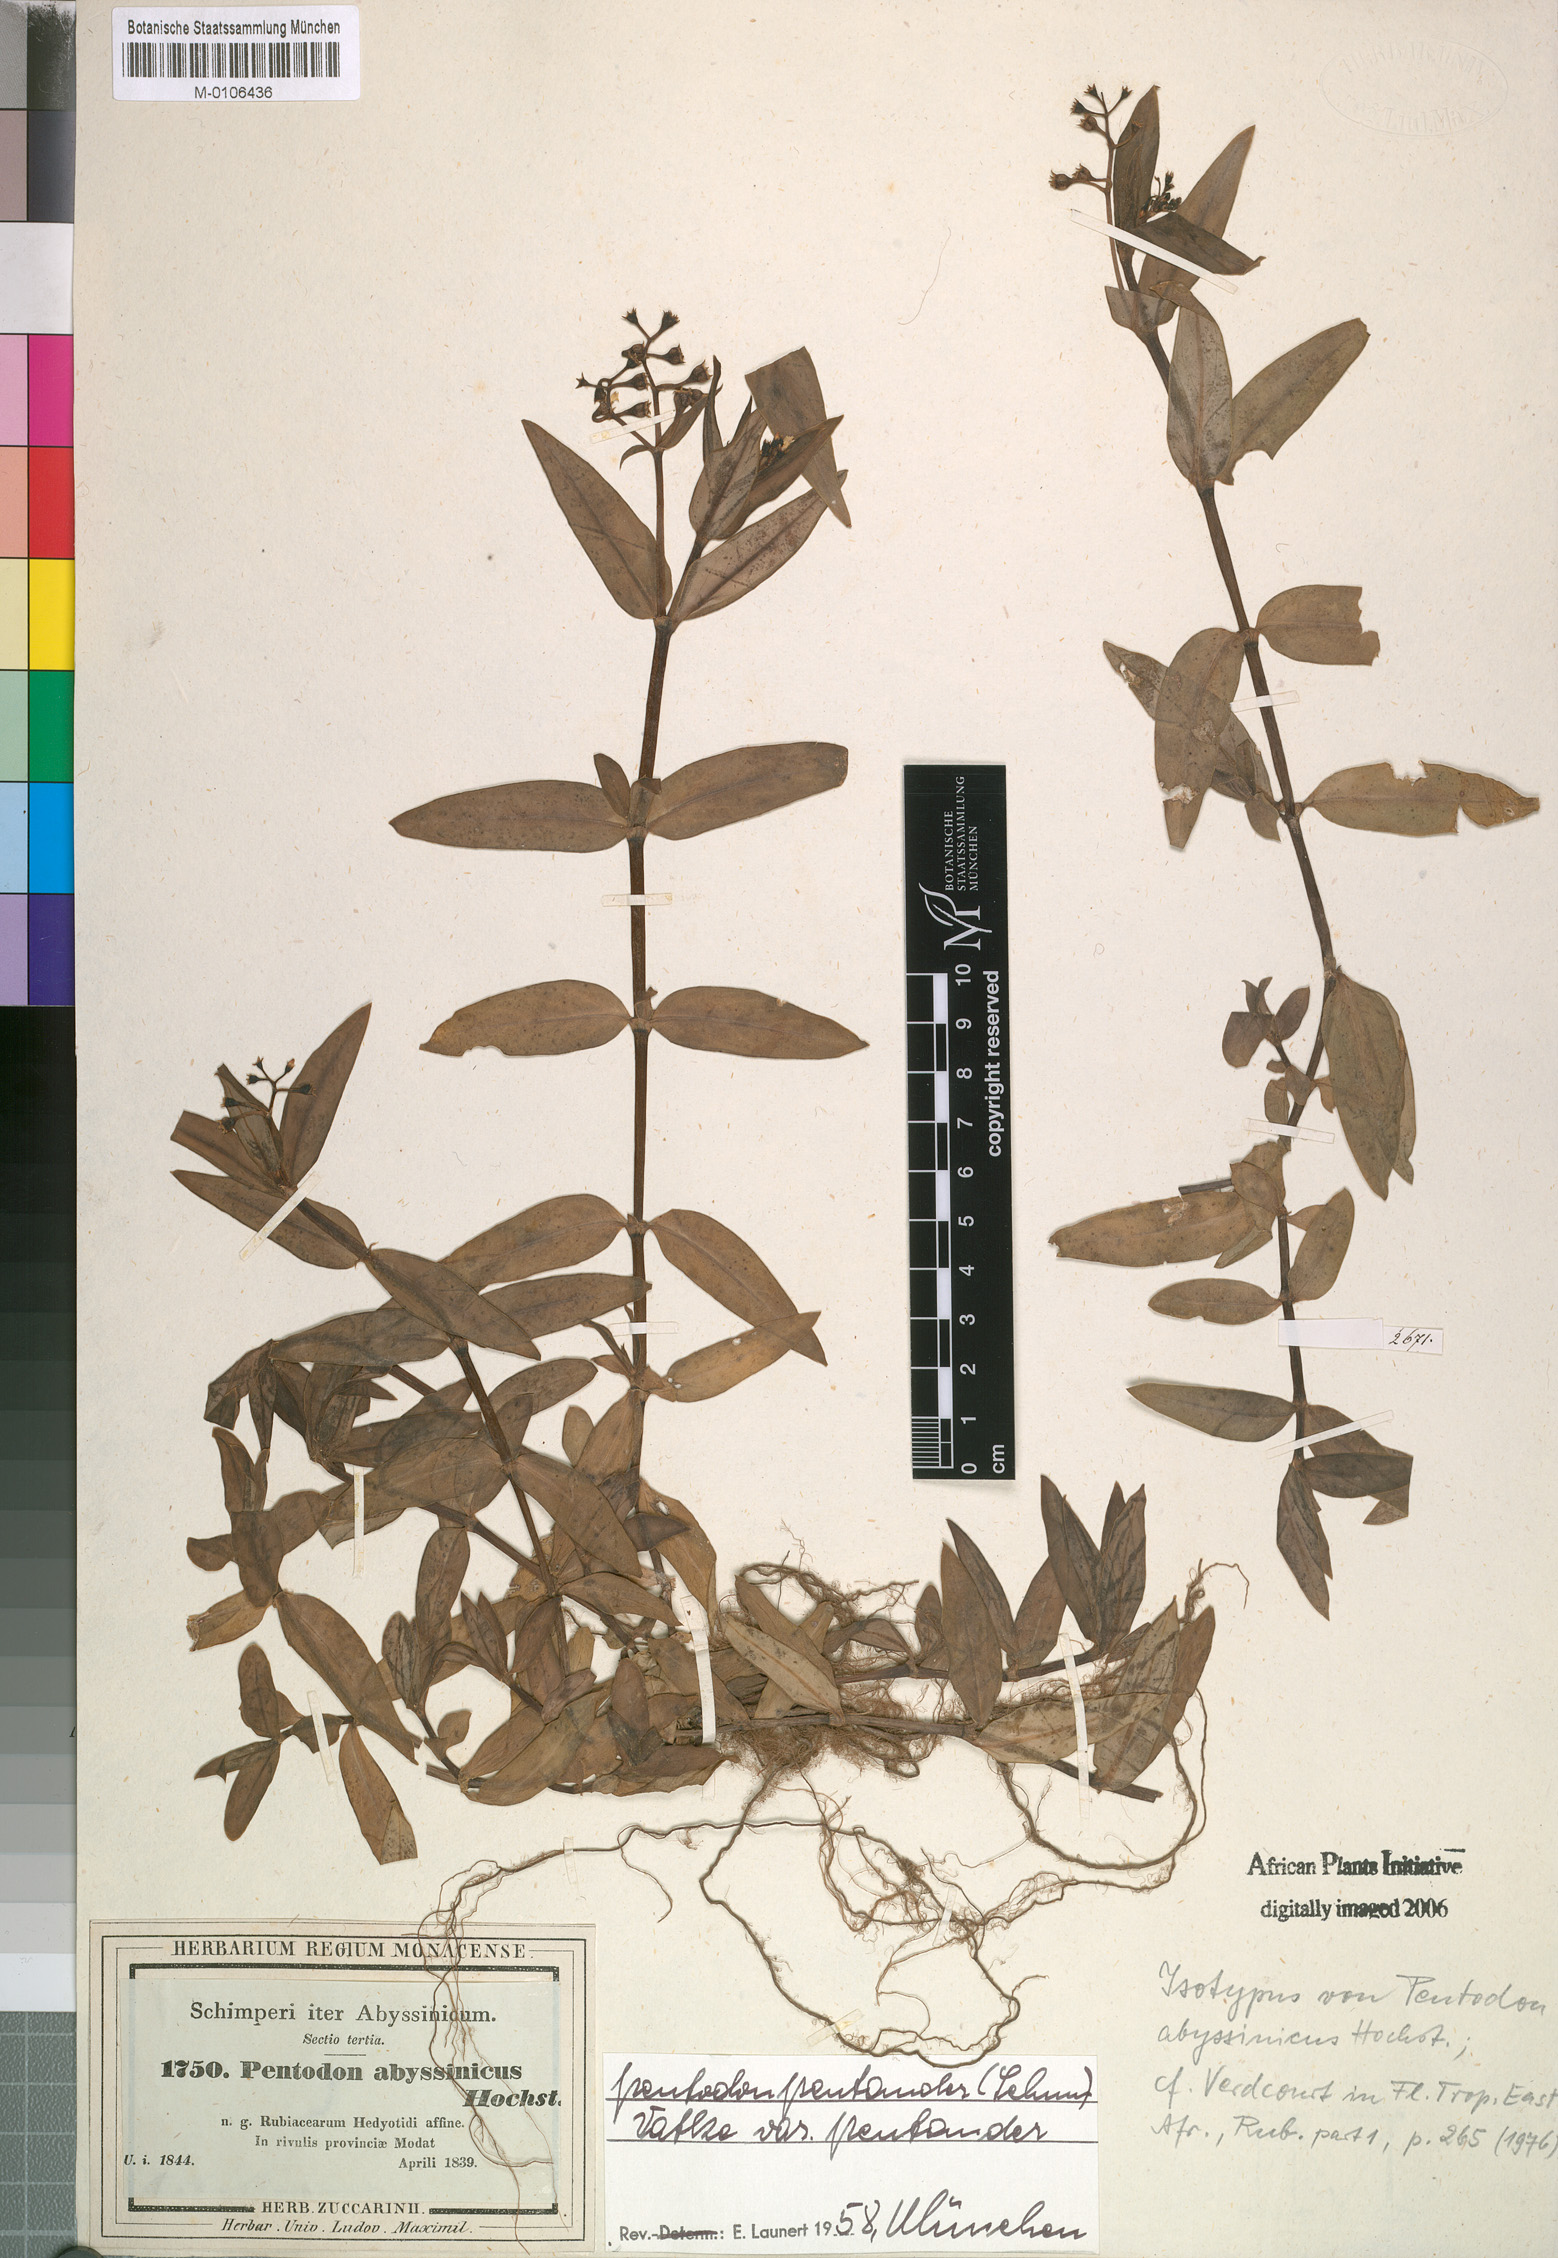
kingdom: Plantae
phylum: Tracheophyta
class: Magnoliopsida
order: Gentianales
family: Rubiaceae
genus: Pentodon
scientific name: Pentodon pentandrus
